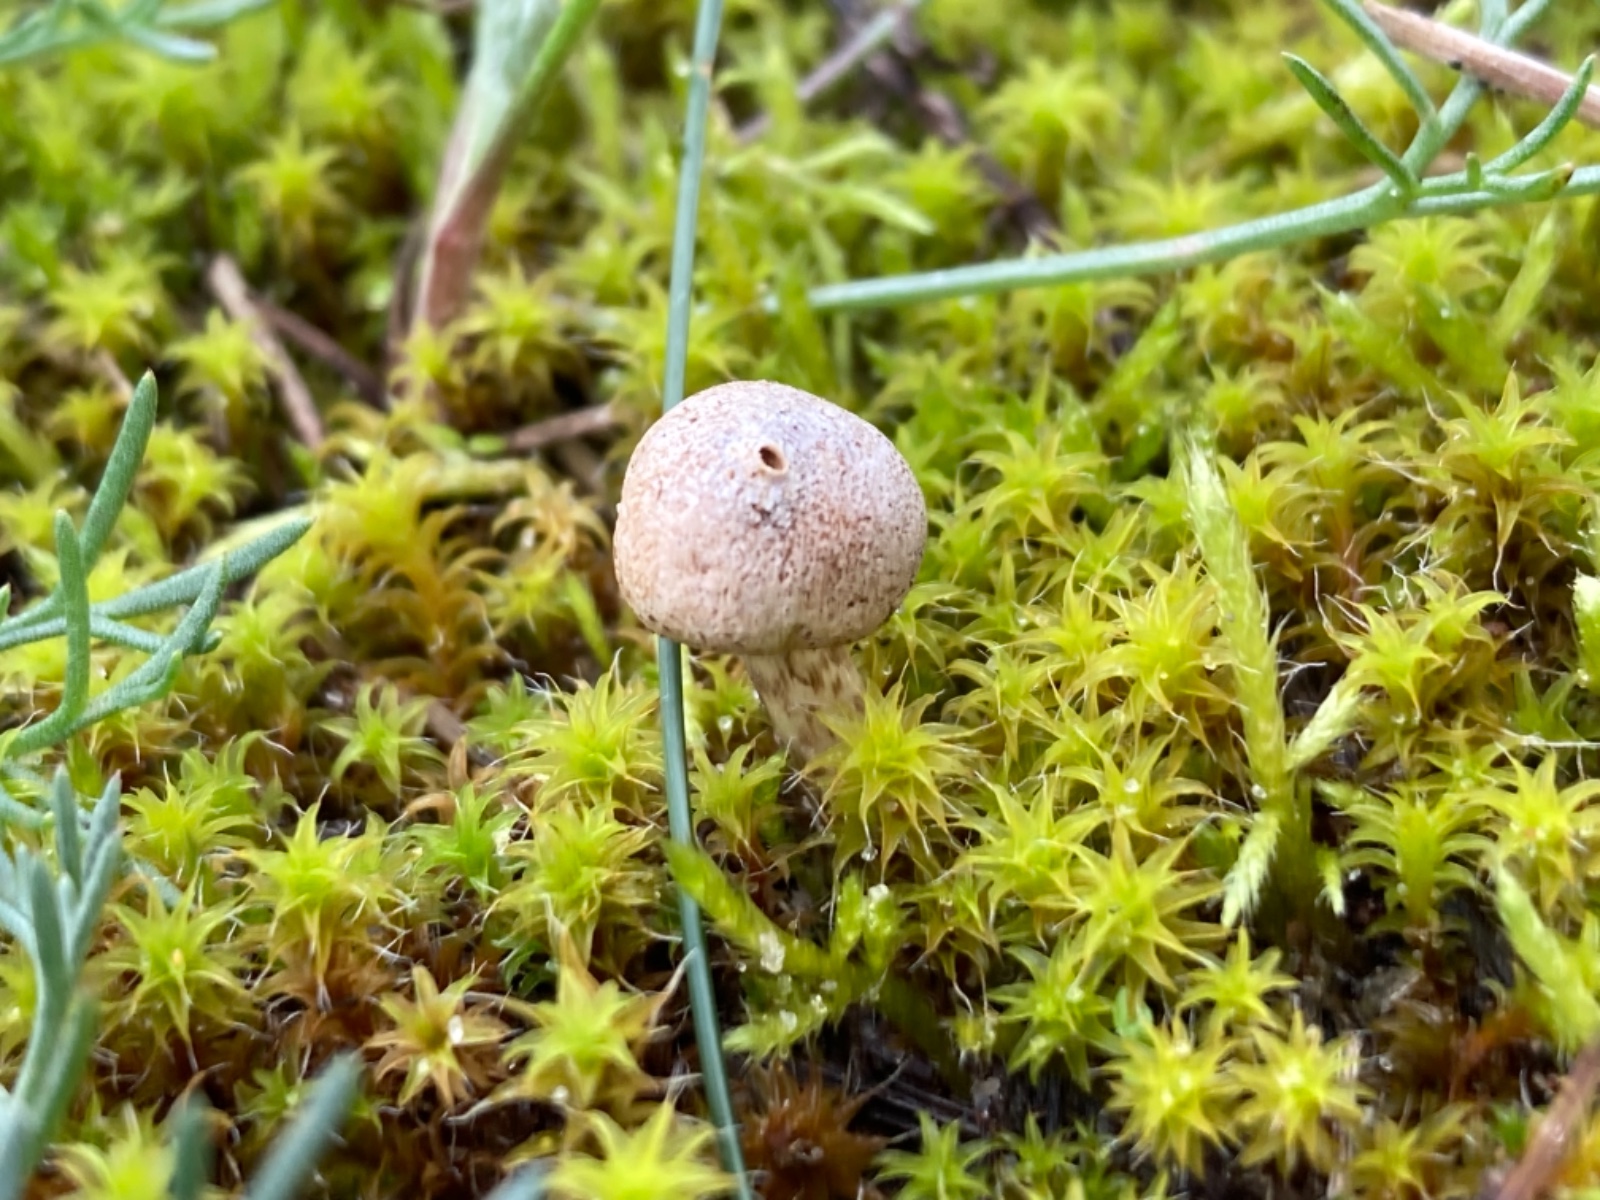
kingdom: Fungi
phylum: Basidiomycota
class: Agaricomycetes
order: Agaricales
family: Agaricaceae
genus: Tulostoma
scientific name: Tulostoma
